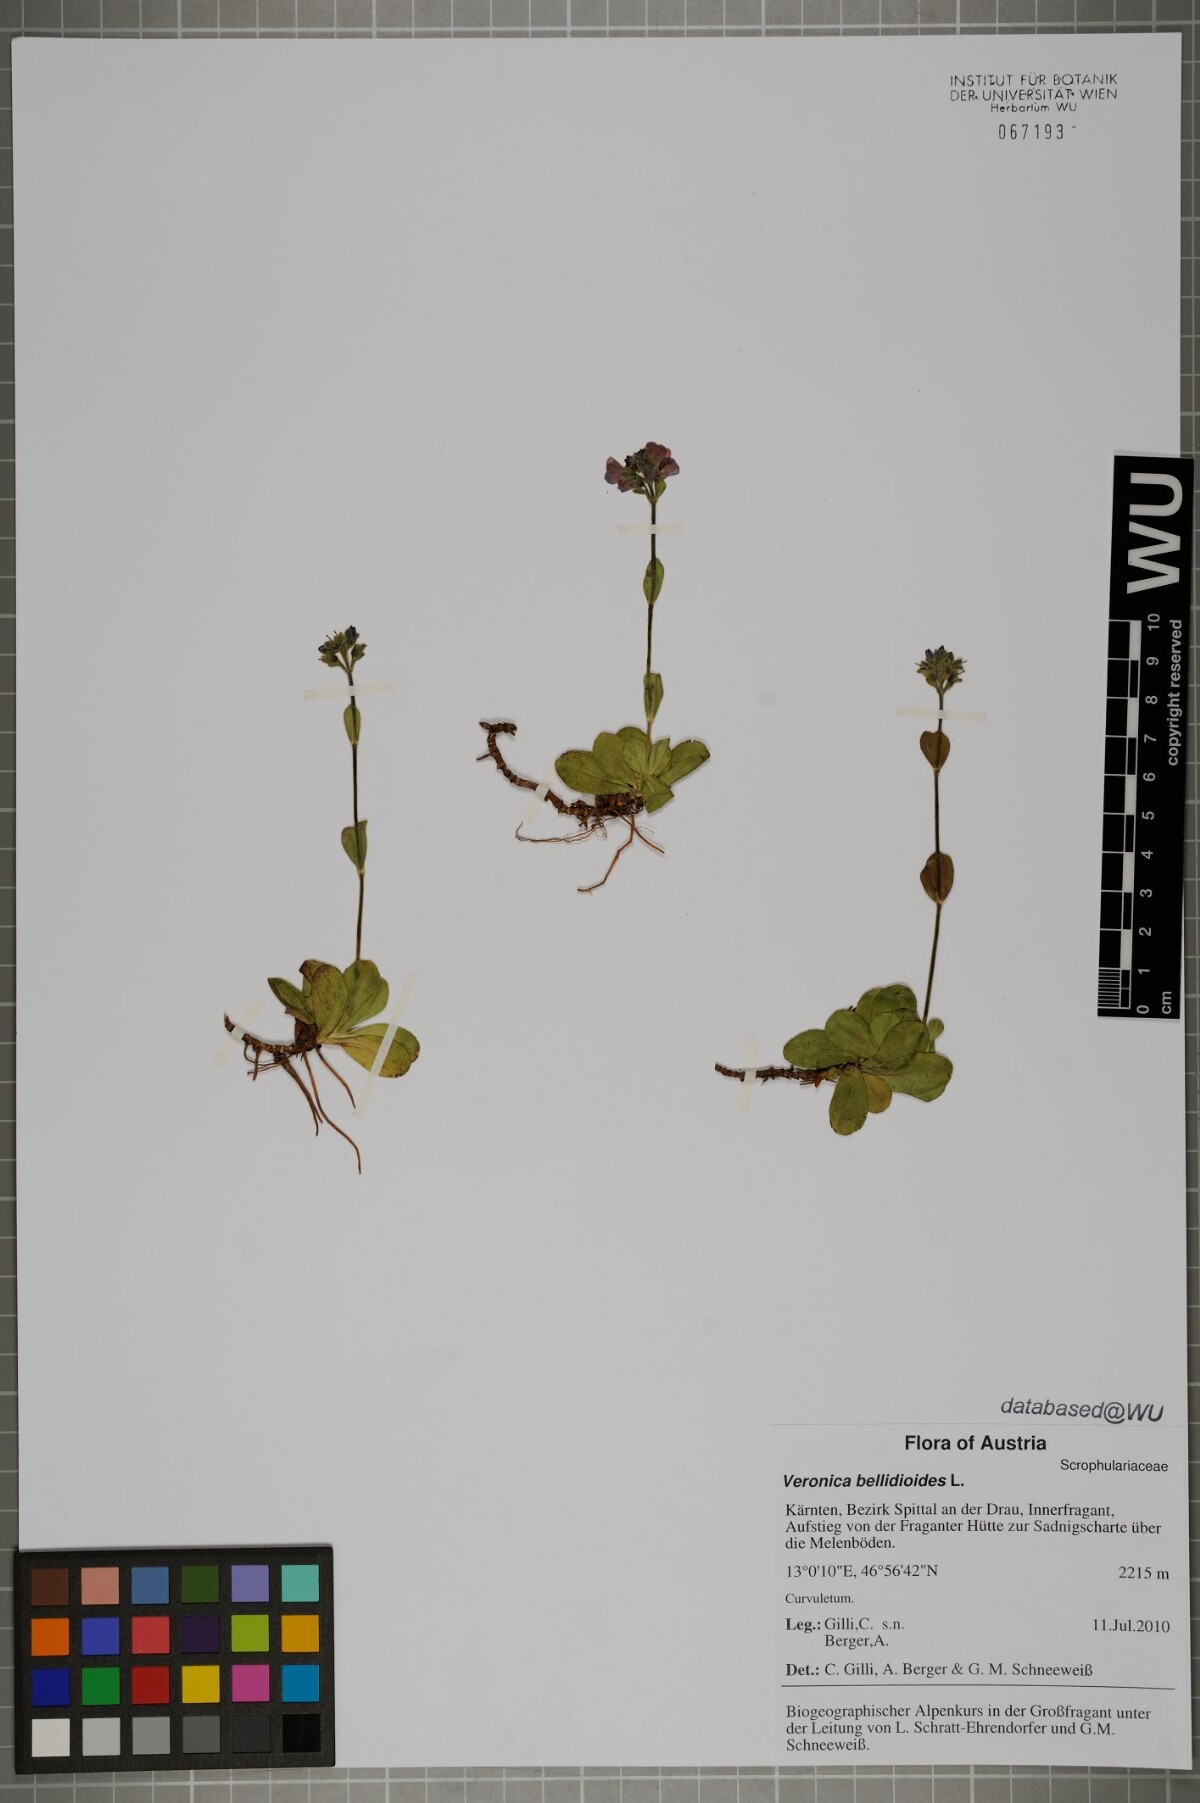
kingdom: Plantae
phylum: Tracheophyta
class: Magnoliopsida
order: Lamiales
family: Plantaginaceae
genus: Veronica
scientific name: Veronica bellidioides
